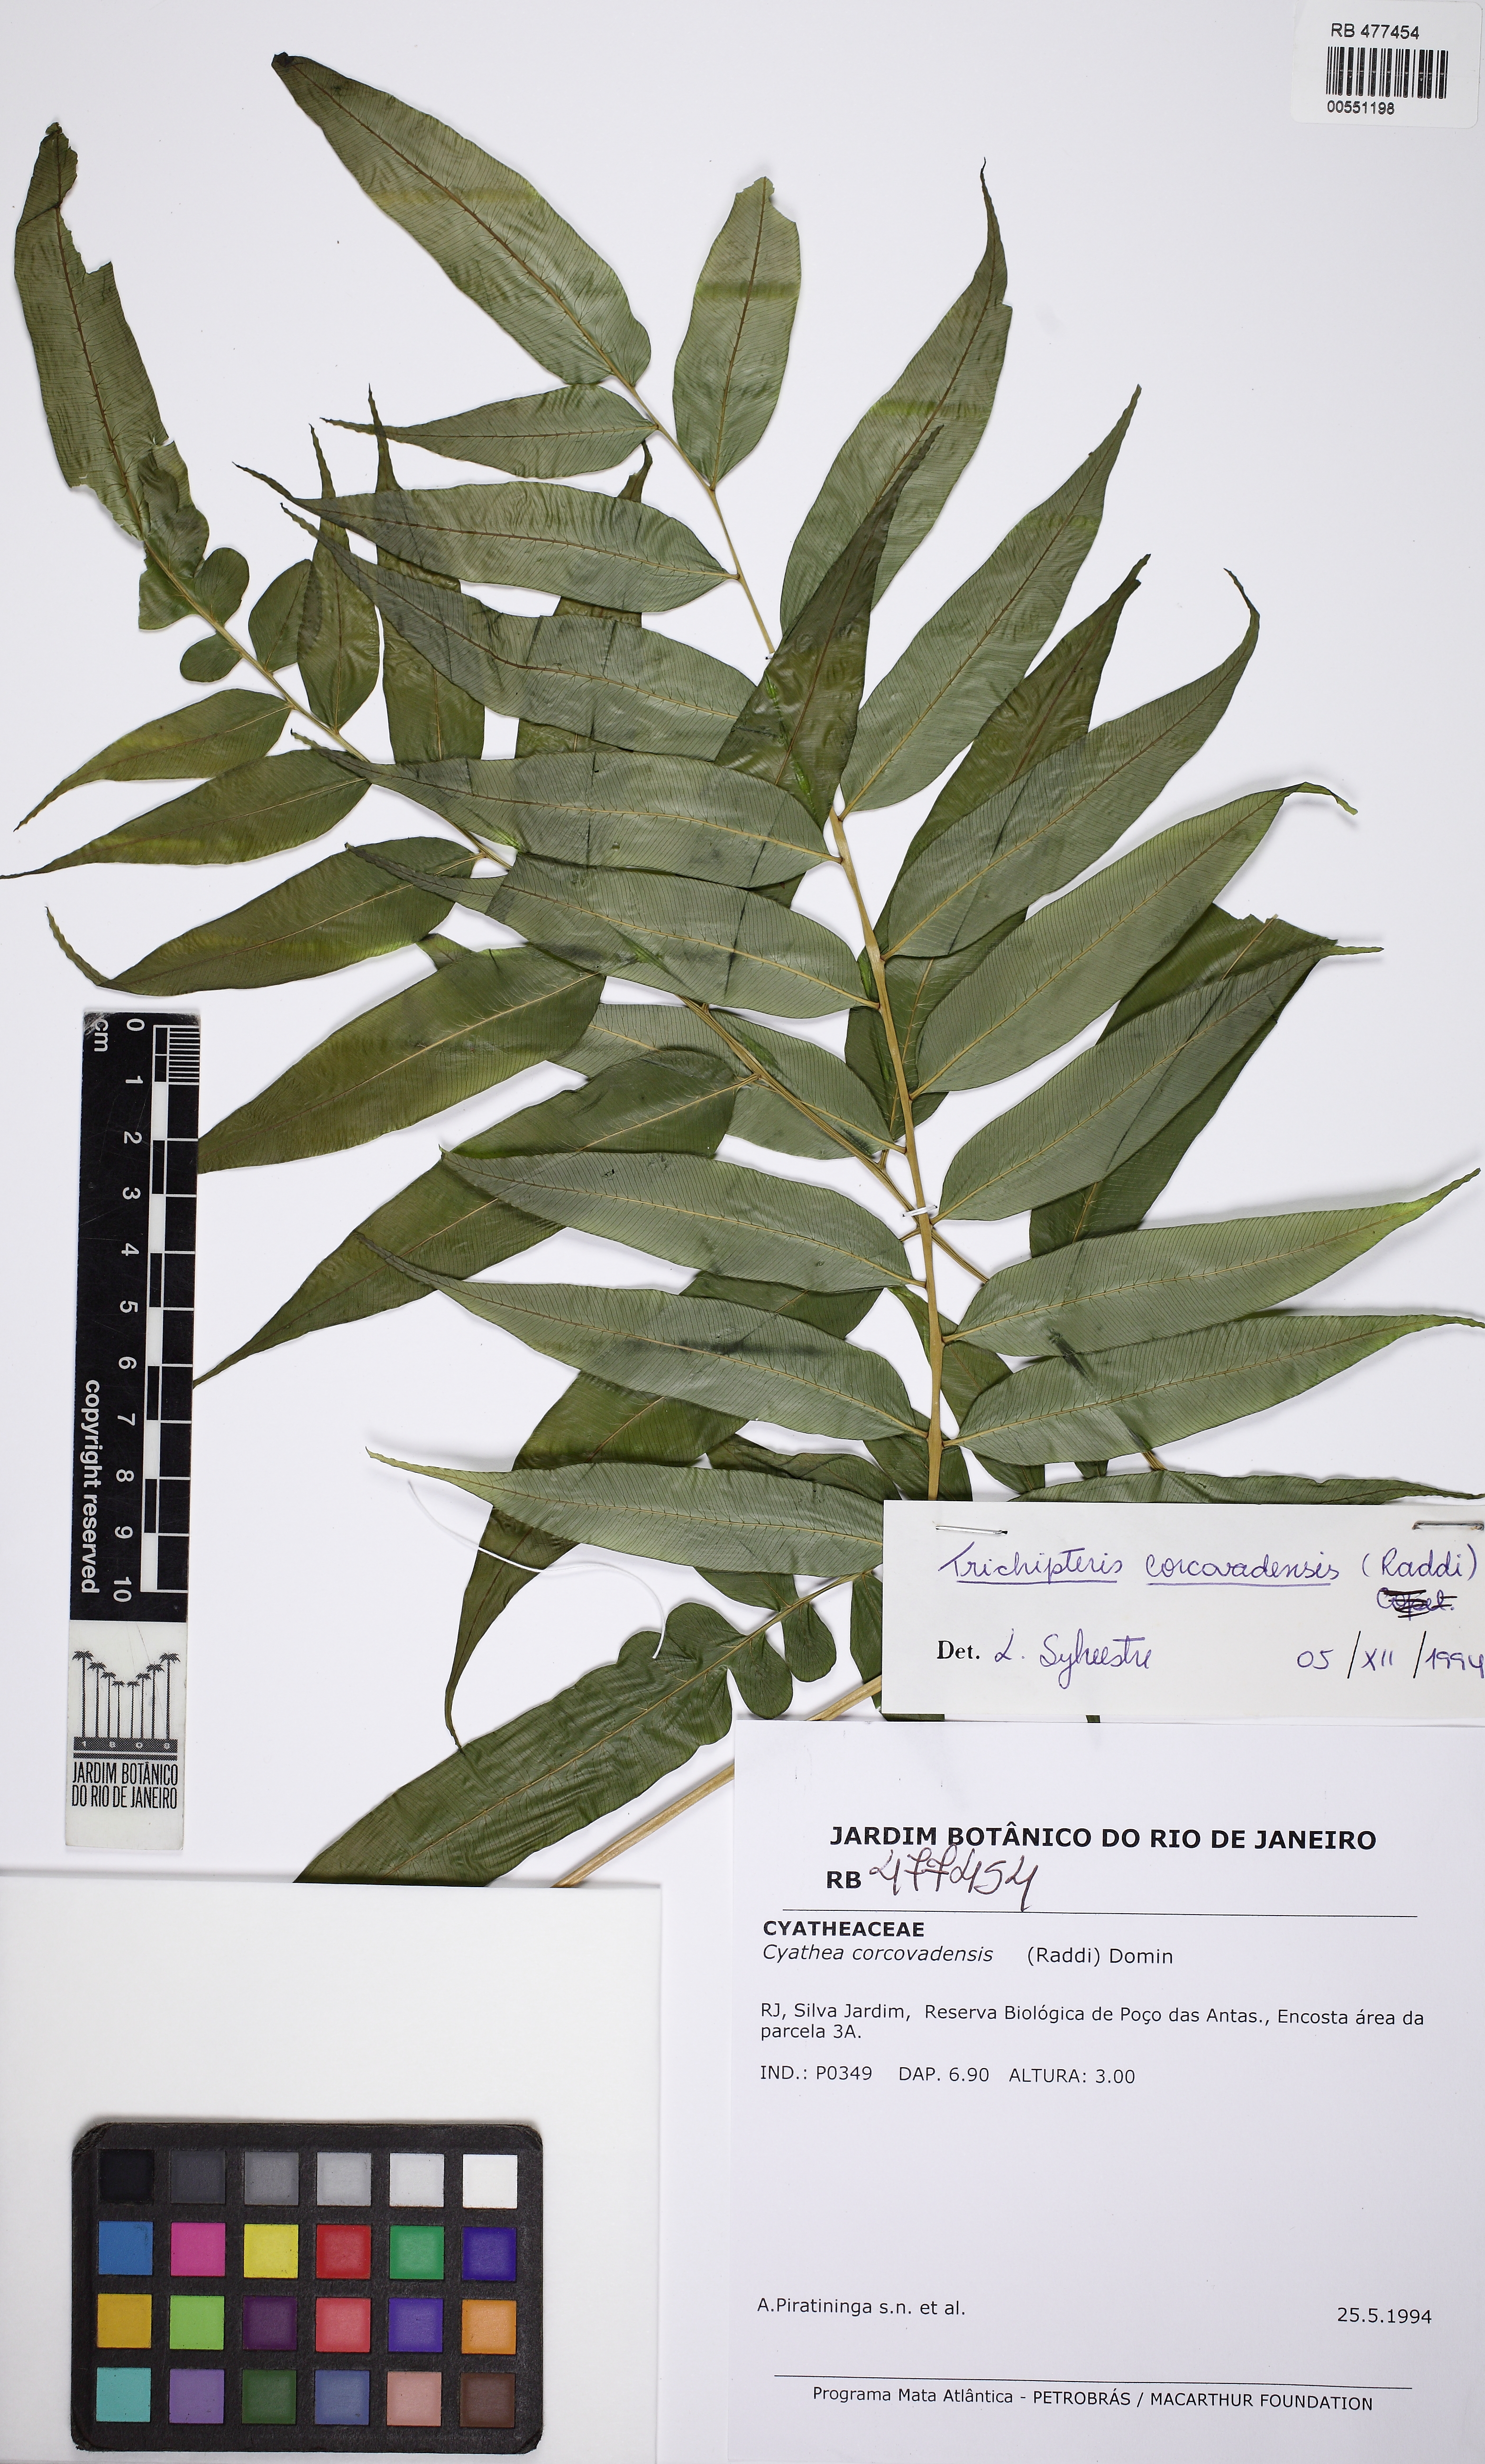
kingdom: Plantae
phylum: Tracheophyta
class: Polypodiopsida
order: Cyatheales
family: Cyatheaceae
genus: Cyathea
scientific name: Cyathea corcovadensis
